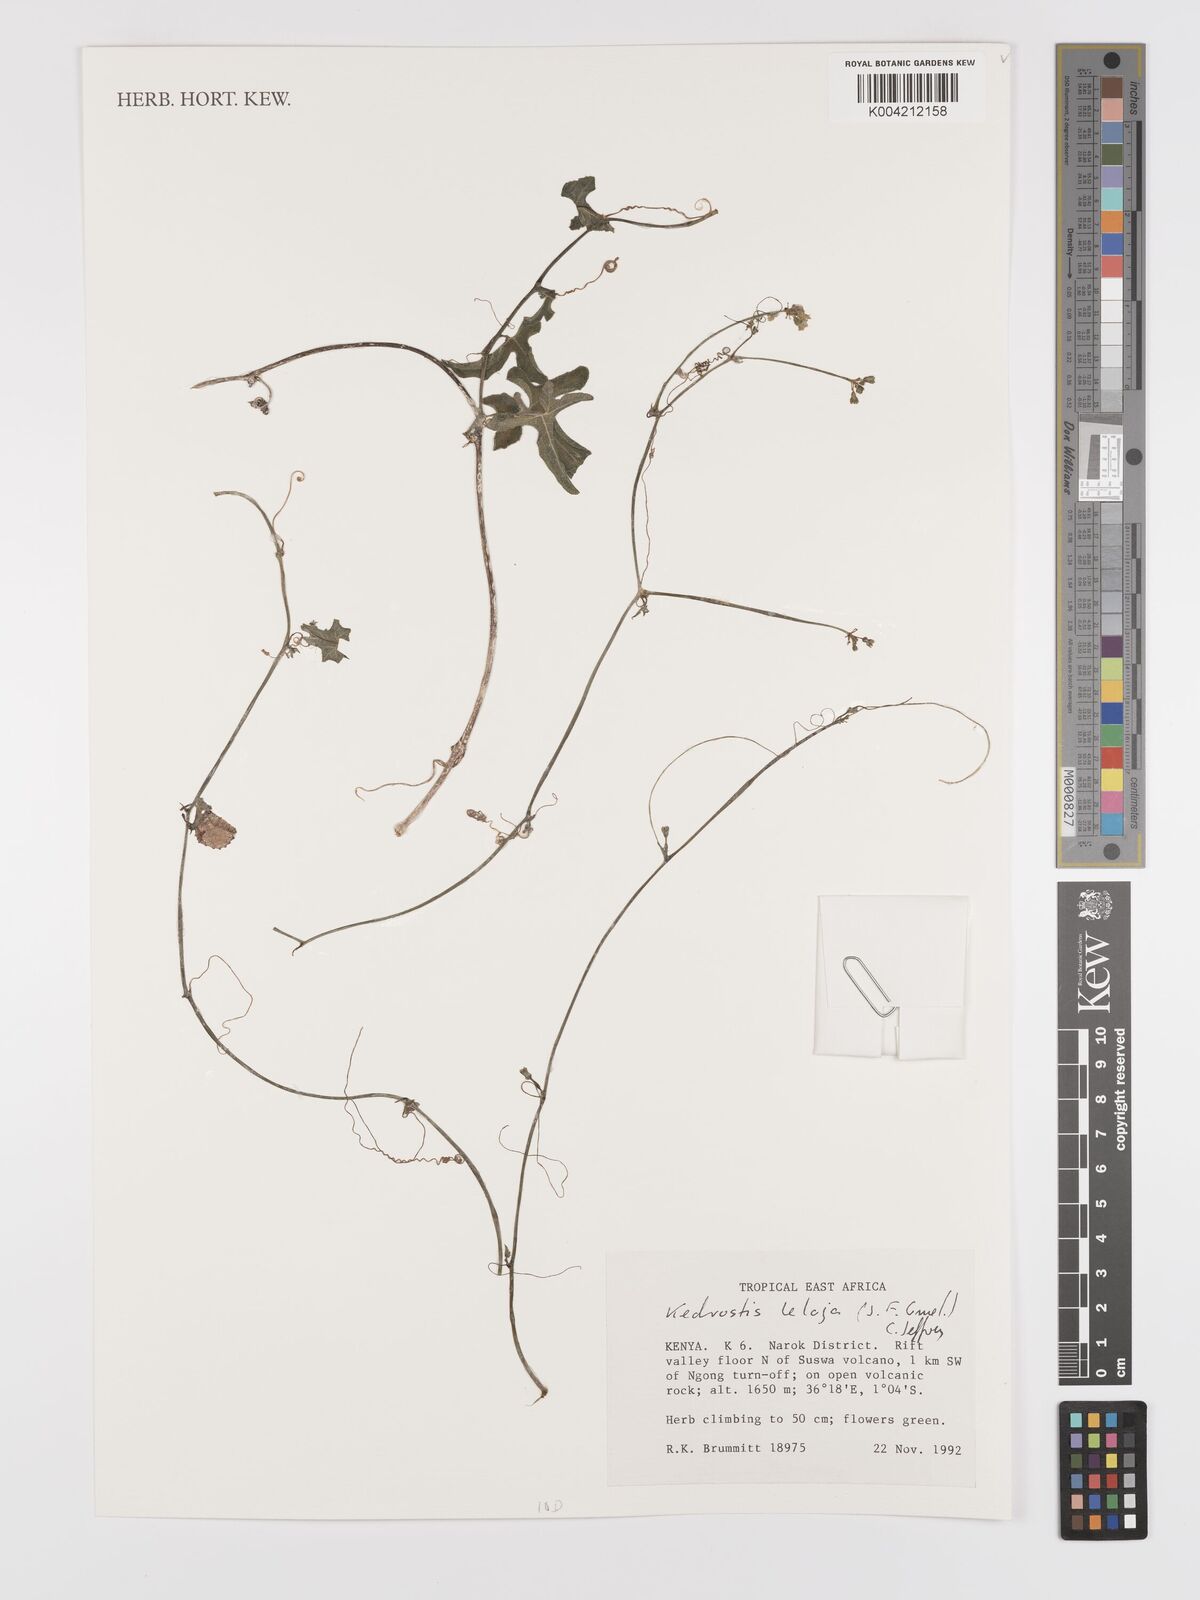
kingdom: Plantae
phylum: Tracheophyta
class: Magnoliopsida
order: Cucurbitales
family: Cucurbitaceae
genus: Kedrostis
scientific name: Kedrostis leloja
